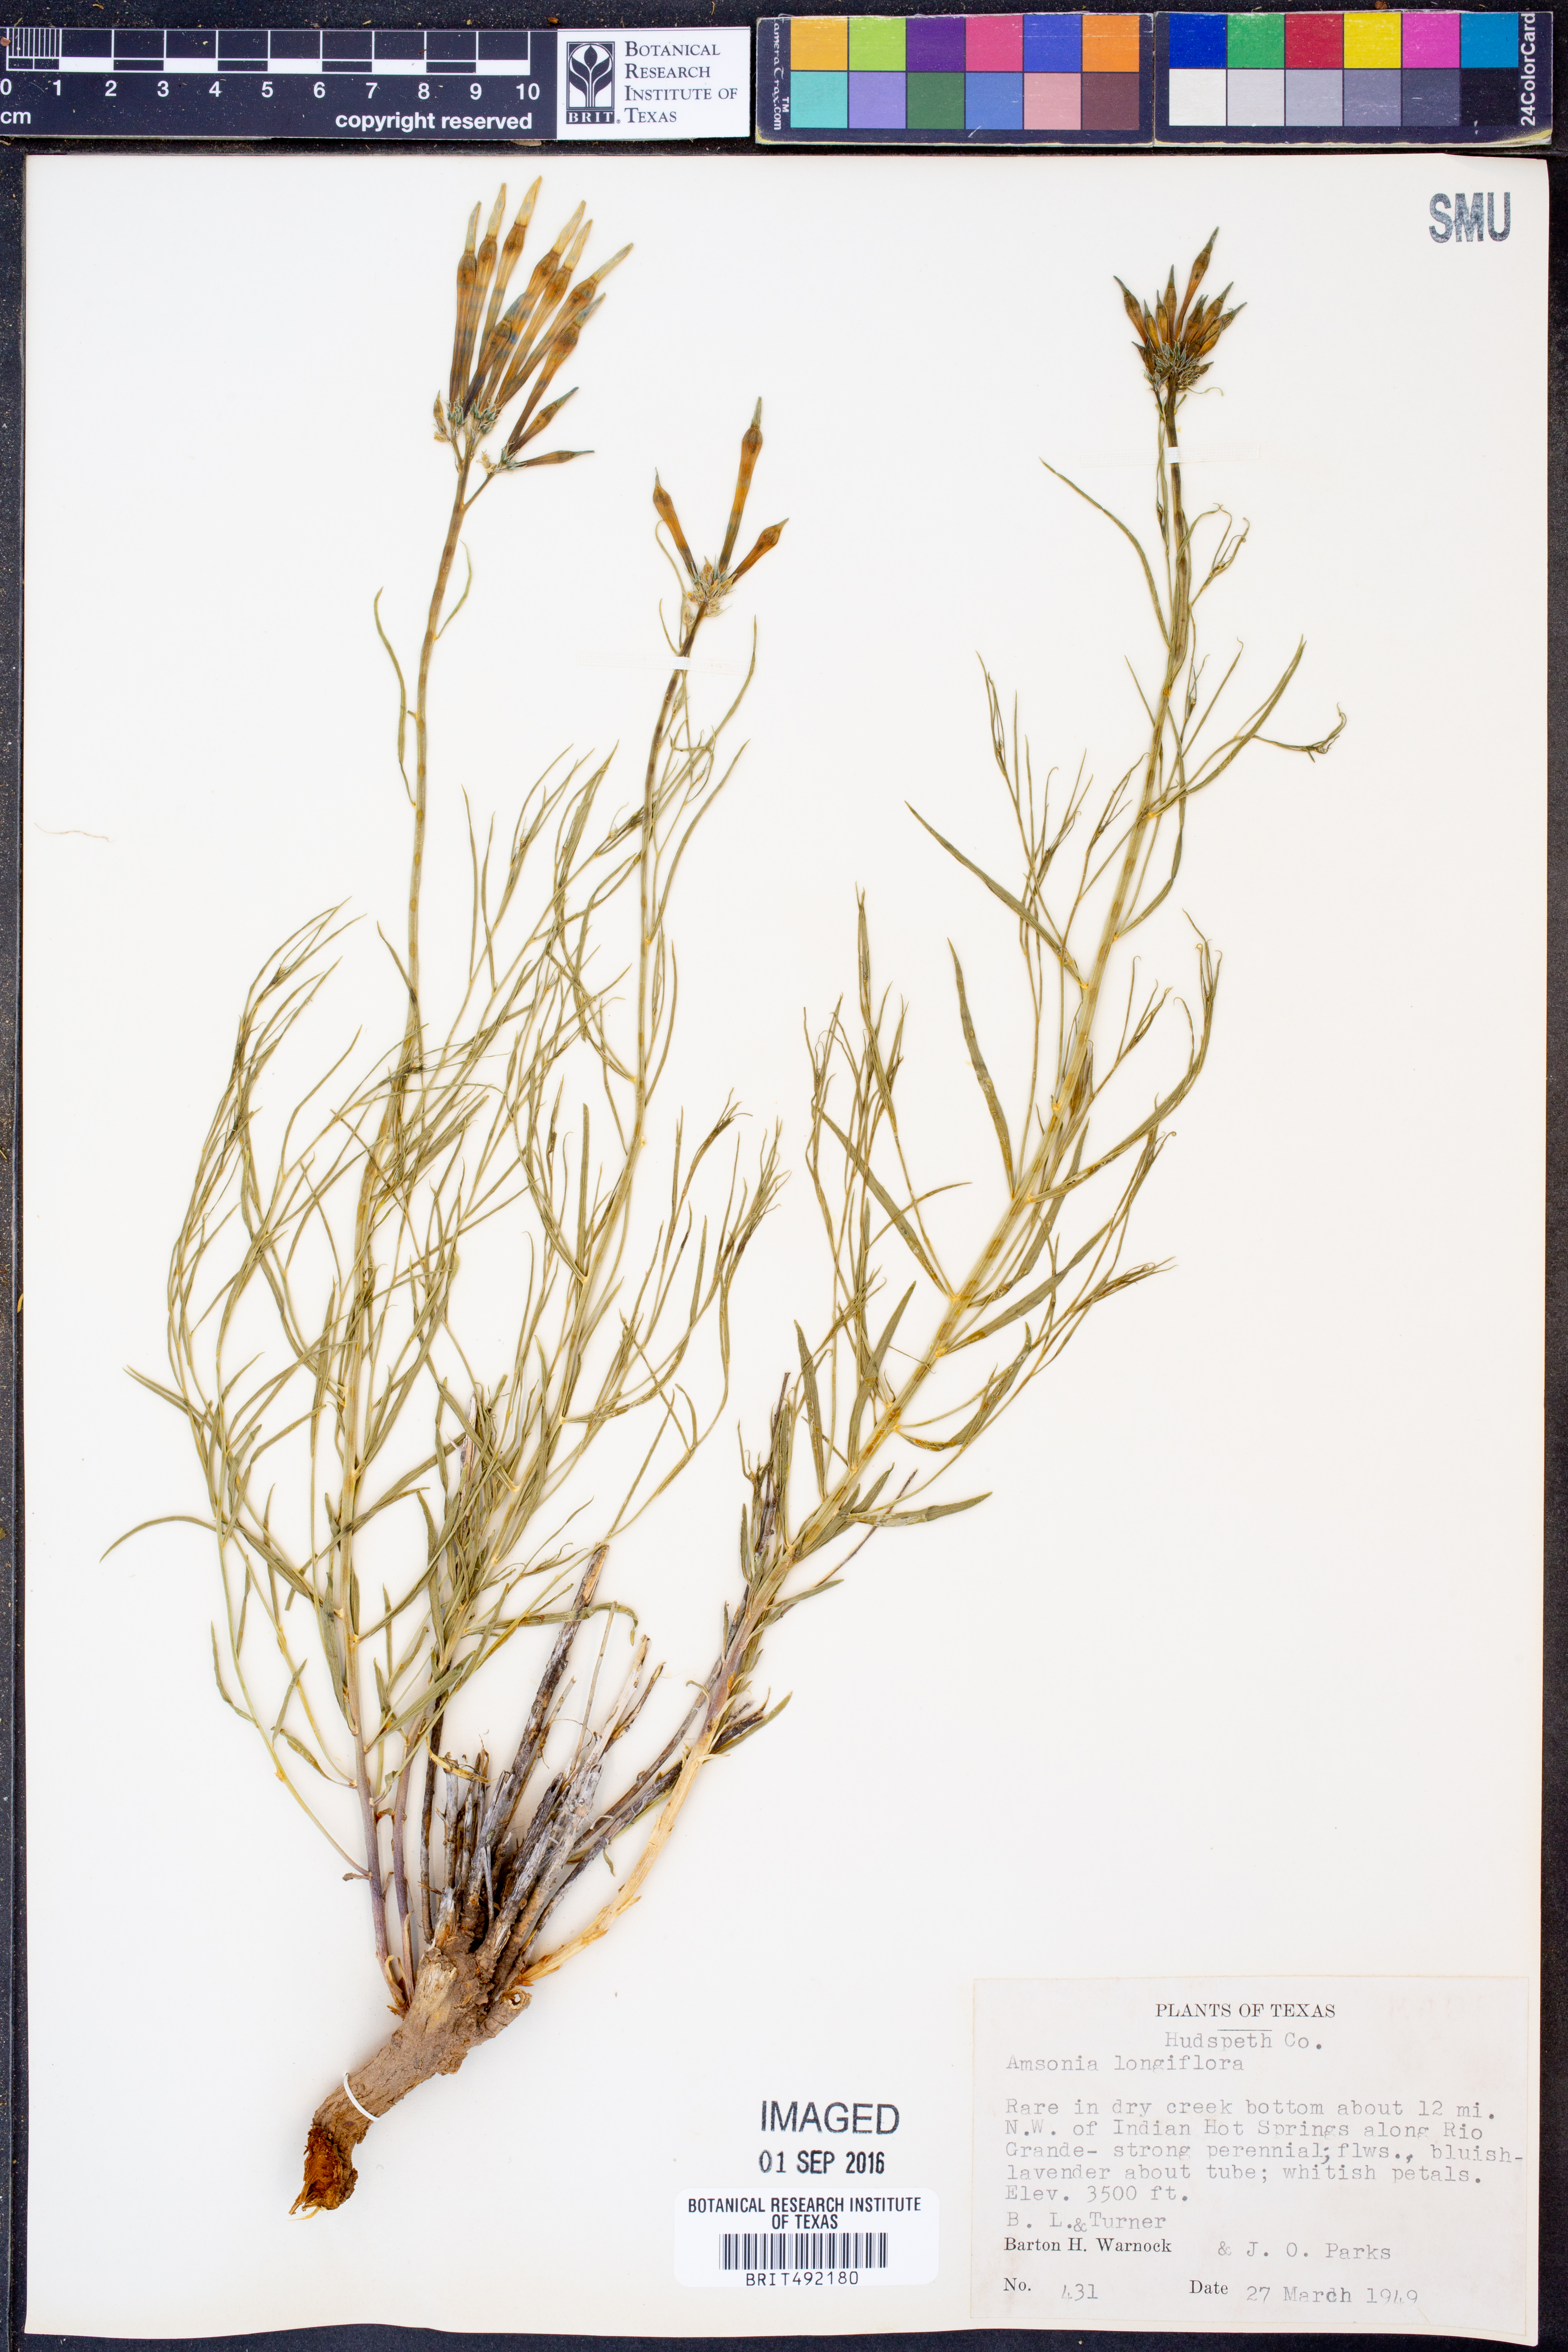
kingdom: Plantae
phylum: Tracheophyta
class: Magnoliopsida
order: Gentianales
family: Apocynaceae
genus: Amsonia
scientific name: Amsonia longiflora
